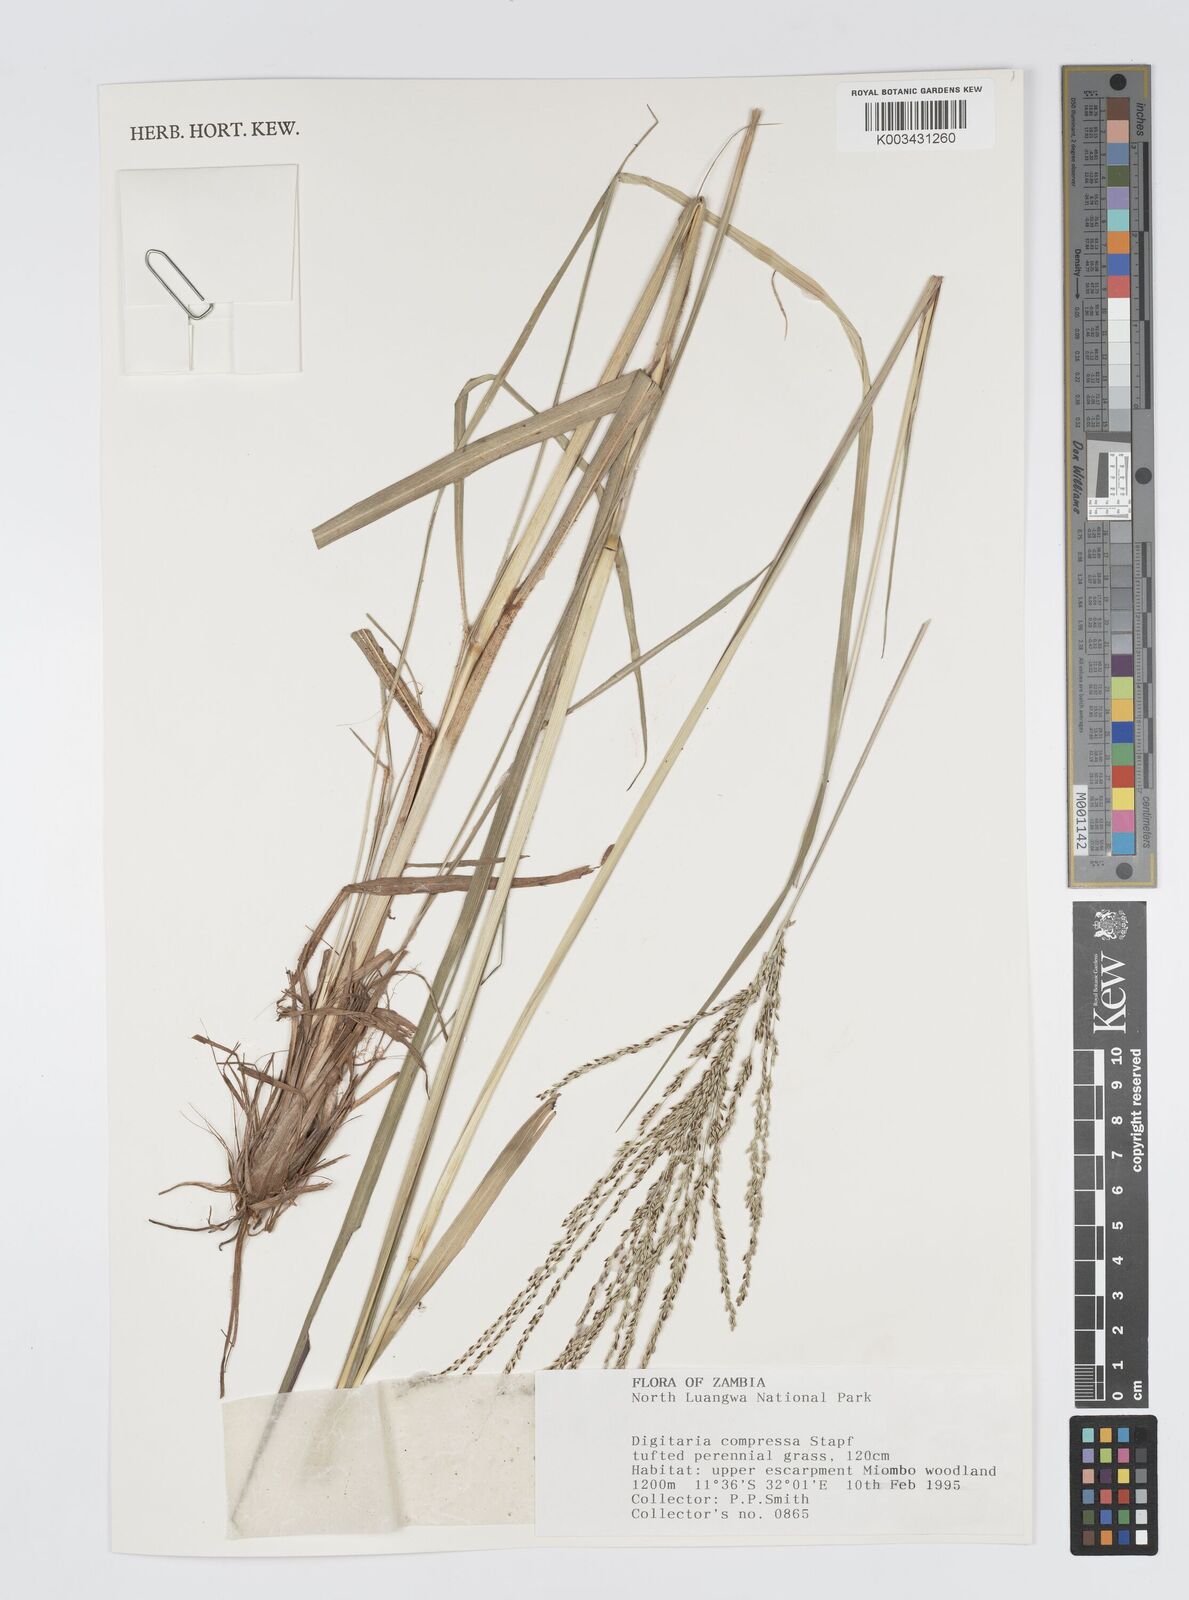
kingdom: Plantae
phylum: Tracheophyta
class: Liliopsida
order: Poales
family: Poaceae
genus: Digitaria
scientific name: Digitaria compressa
